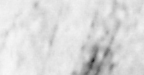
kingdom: Animalia
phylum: Chordata
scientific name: Chordata
